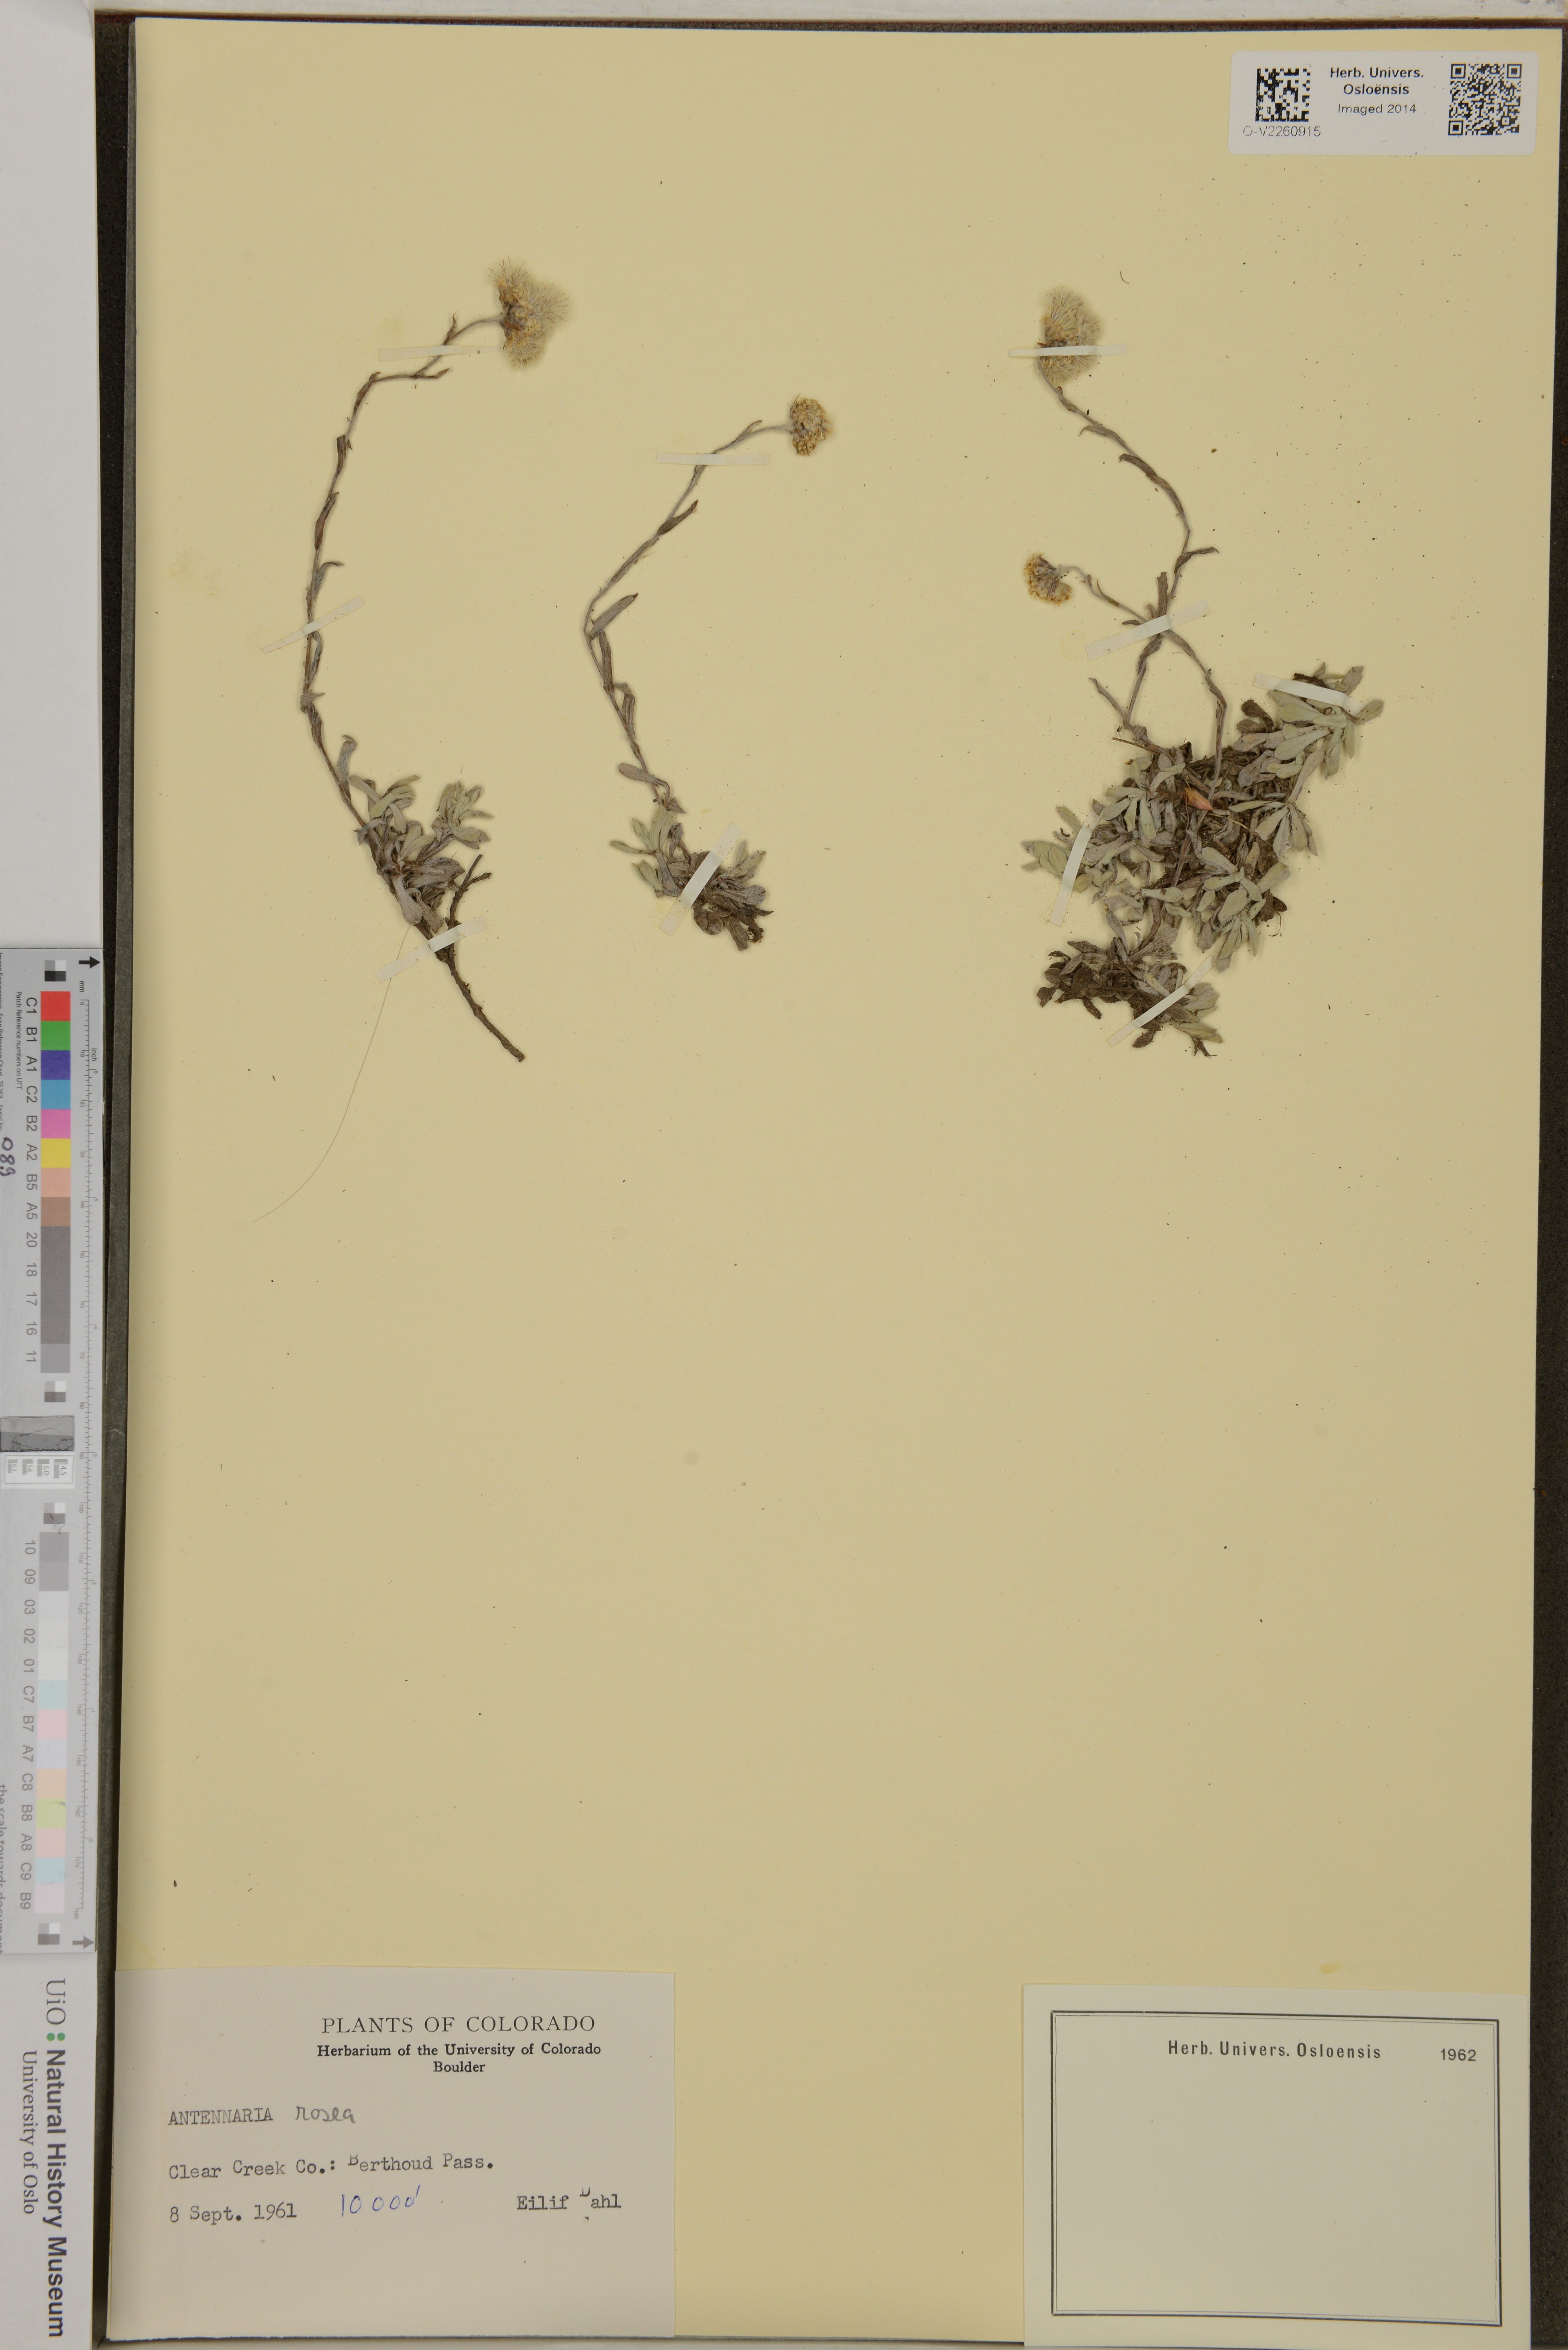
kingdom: Plantae
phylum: Tracheophyta
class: Magnoliopsida
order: Asterales
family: Asteraceae
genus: Antennaria
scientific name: Antennaria rosea
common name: Rosy pussytoes
